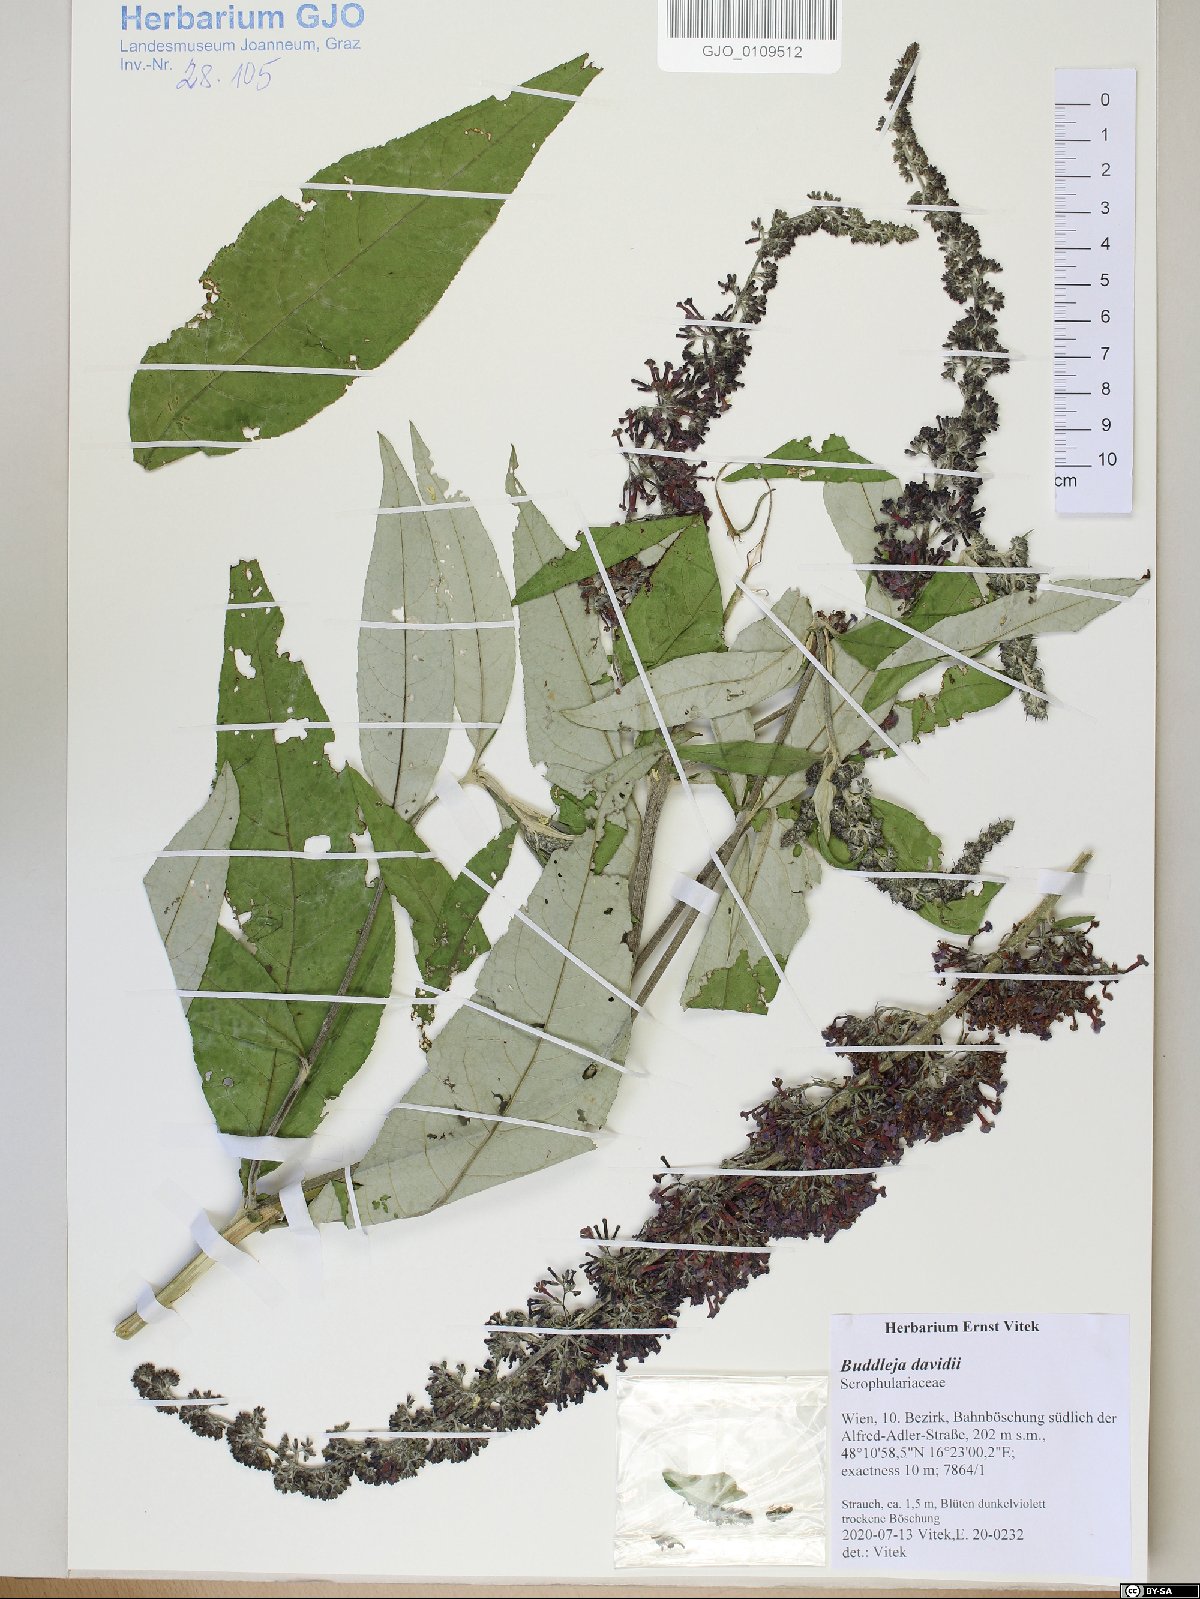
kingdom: Plantae
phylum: Tracheophyta
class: Magnoliopsida
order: Lamiales
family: Scrophulariaceae
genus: Buddleja
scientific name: Buddleja davidii
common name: Butterfly-bush
